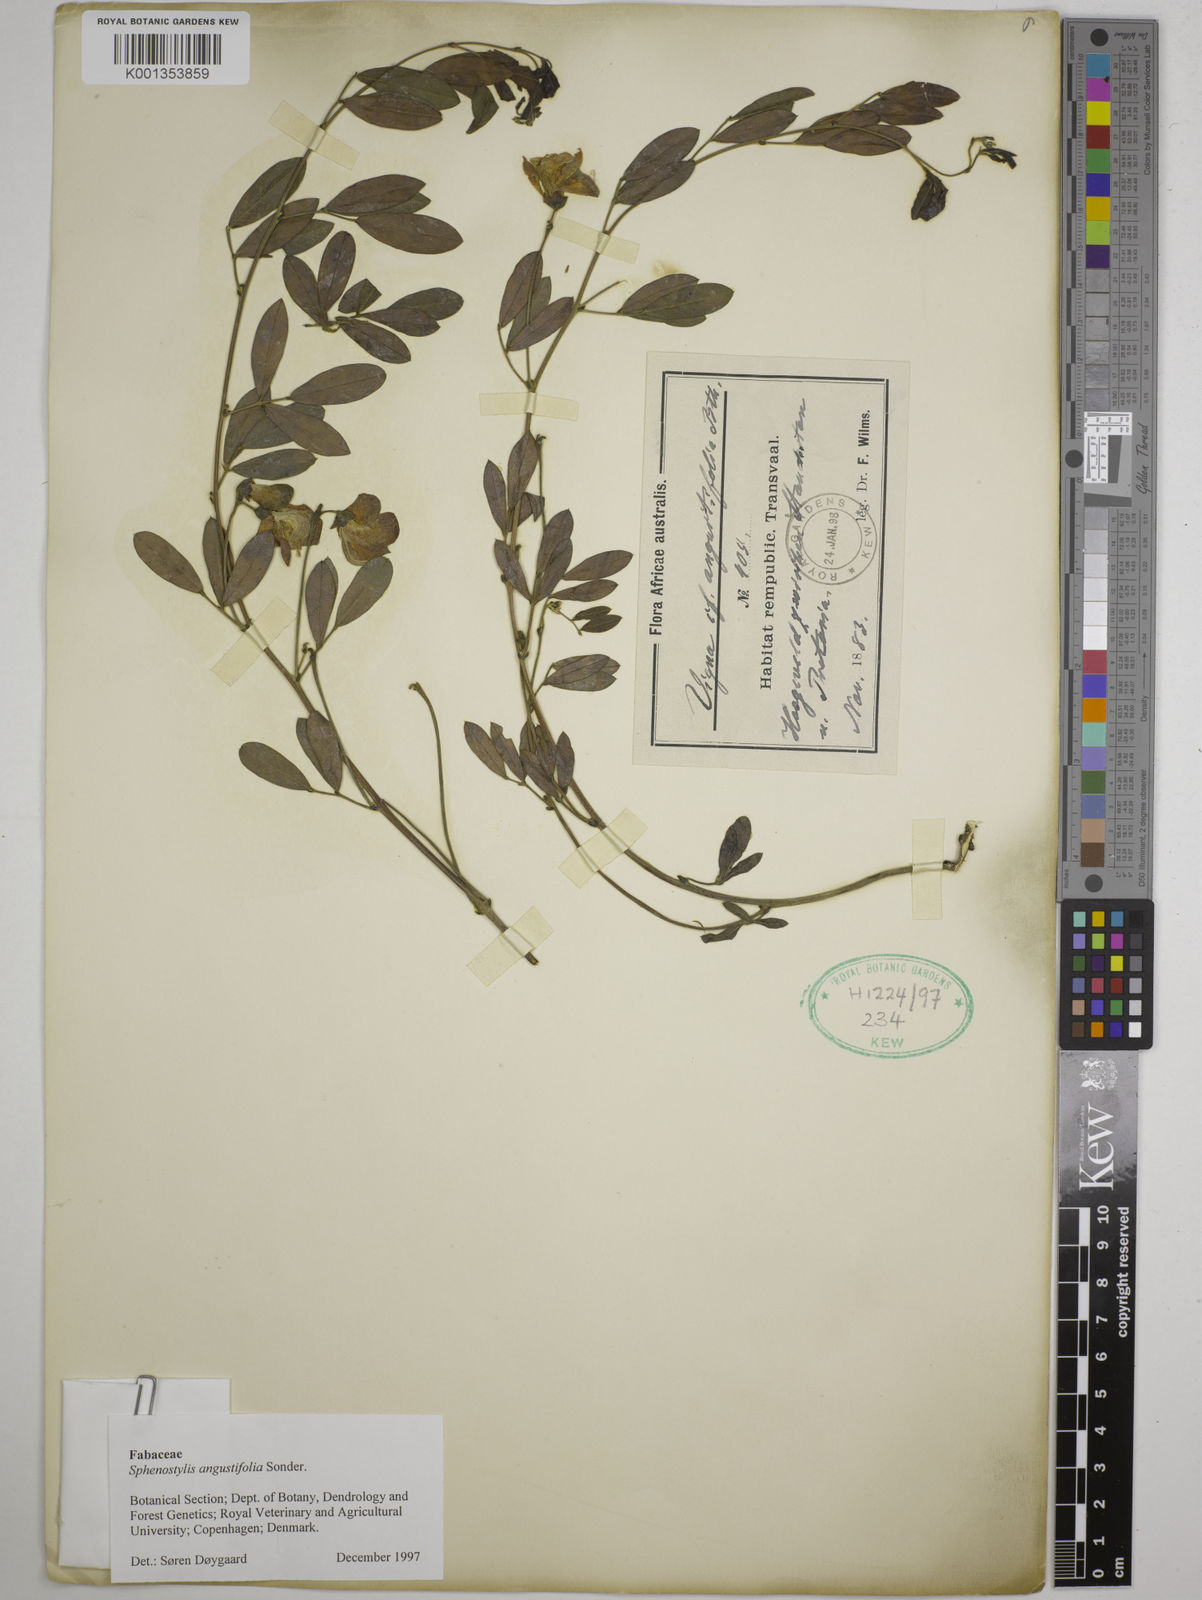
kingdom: Plantae
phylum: Tracheophyta
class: Magnoliopsida
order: Fabales
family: Fabaceae
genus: Sphenostylis
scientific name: Sphenostylis angustifolia
